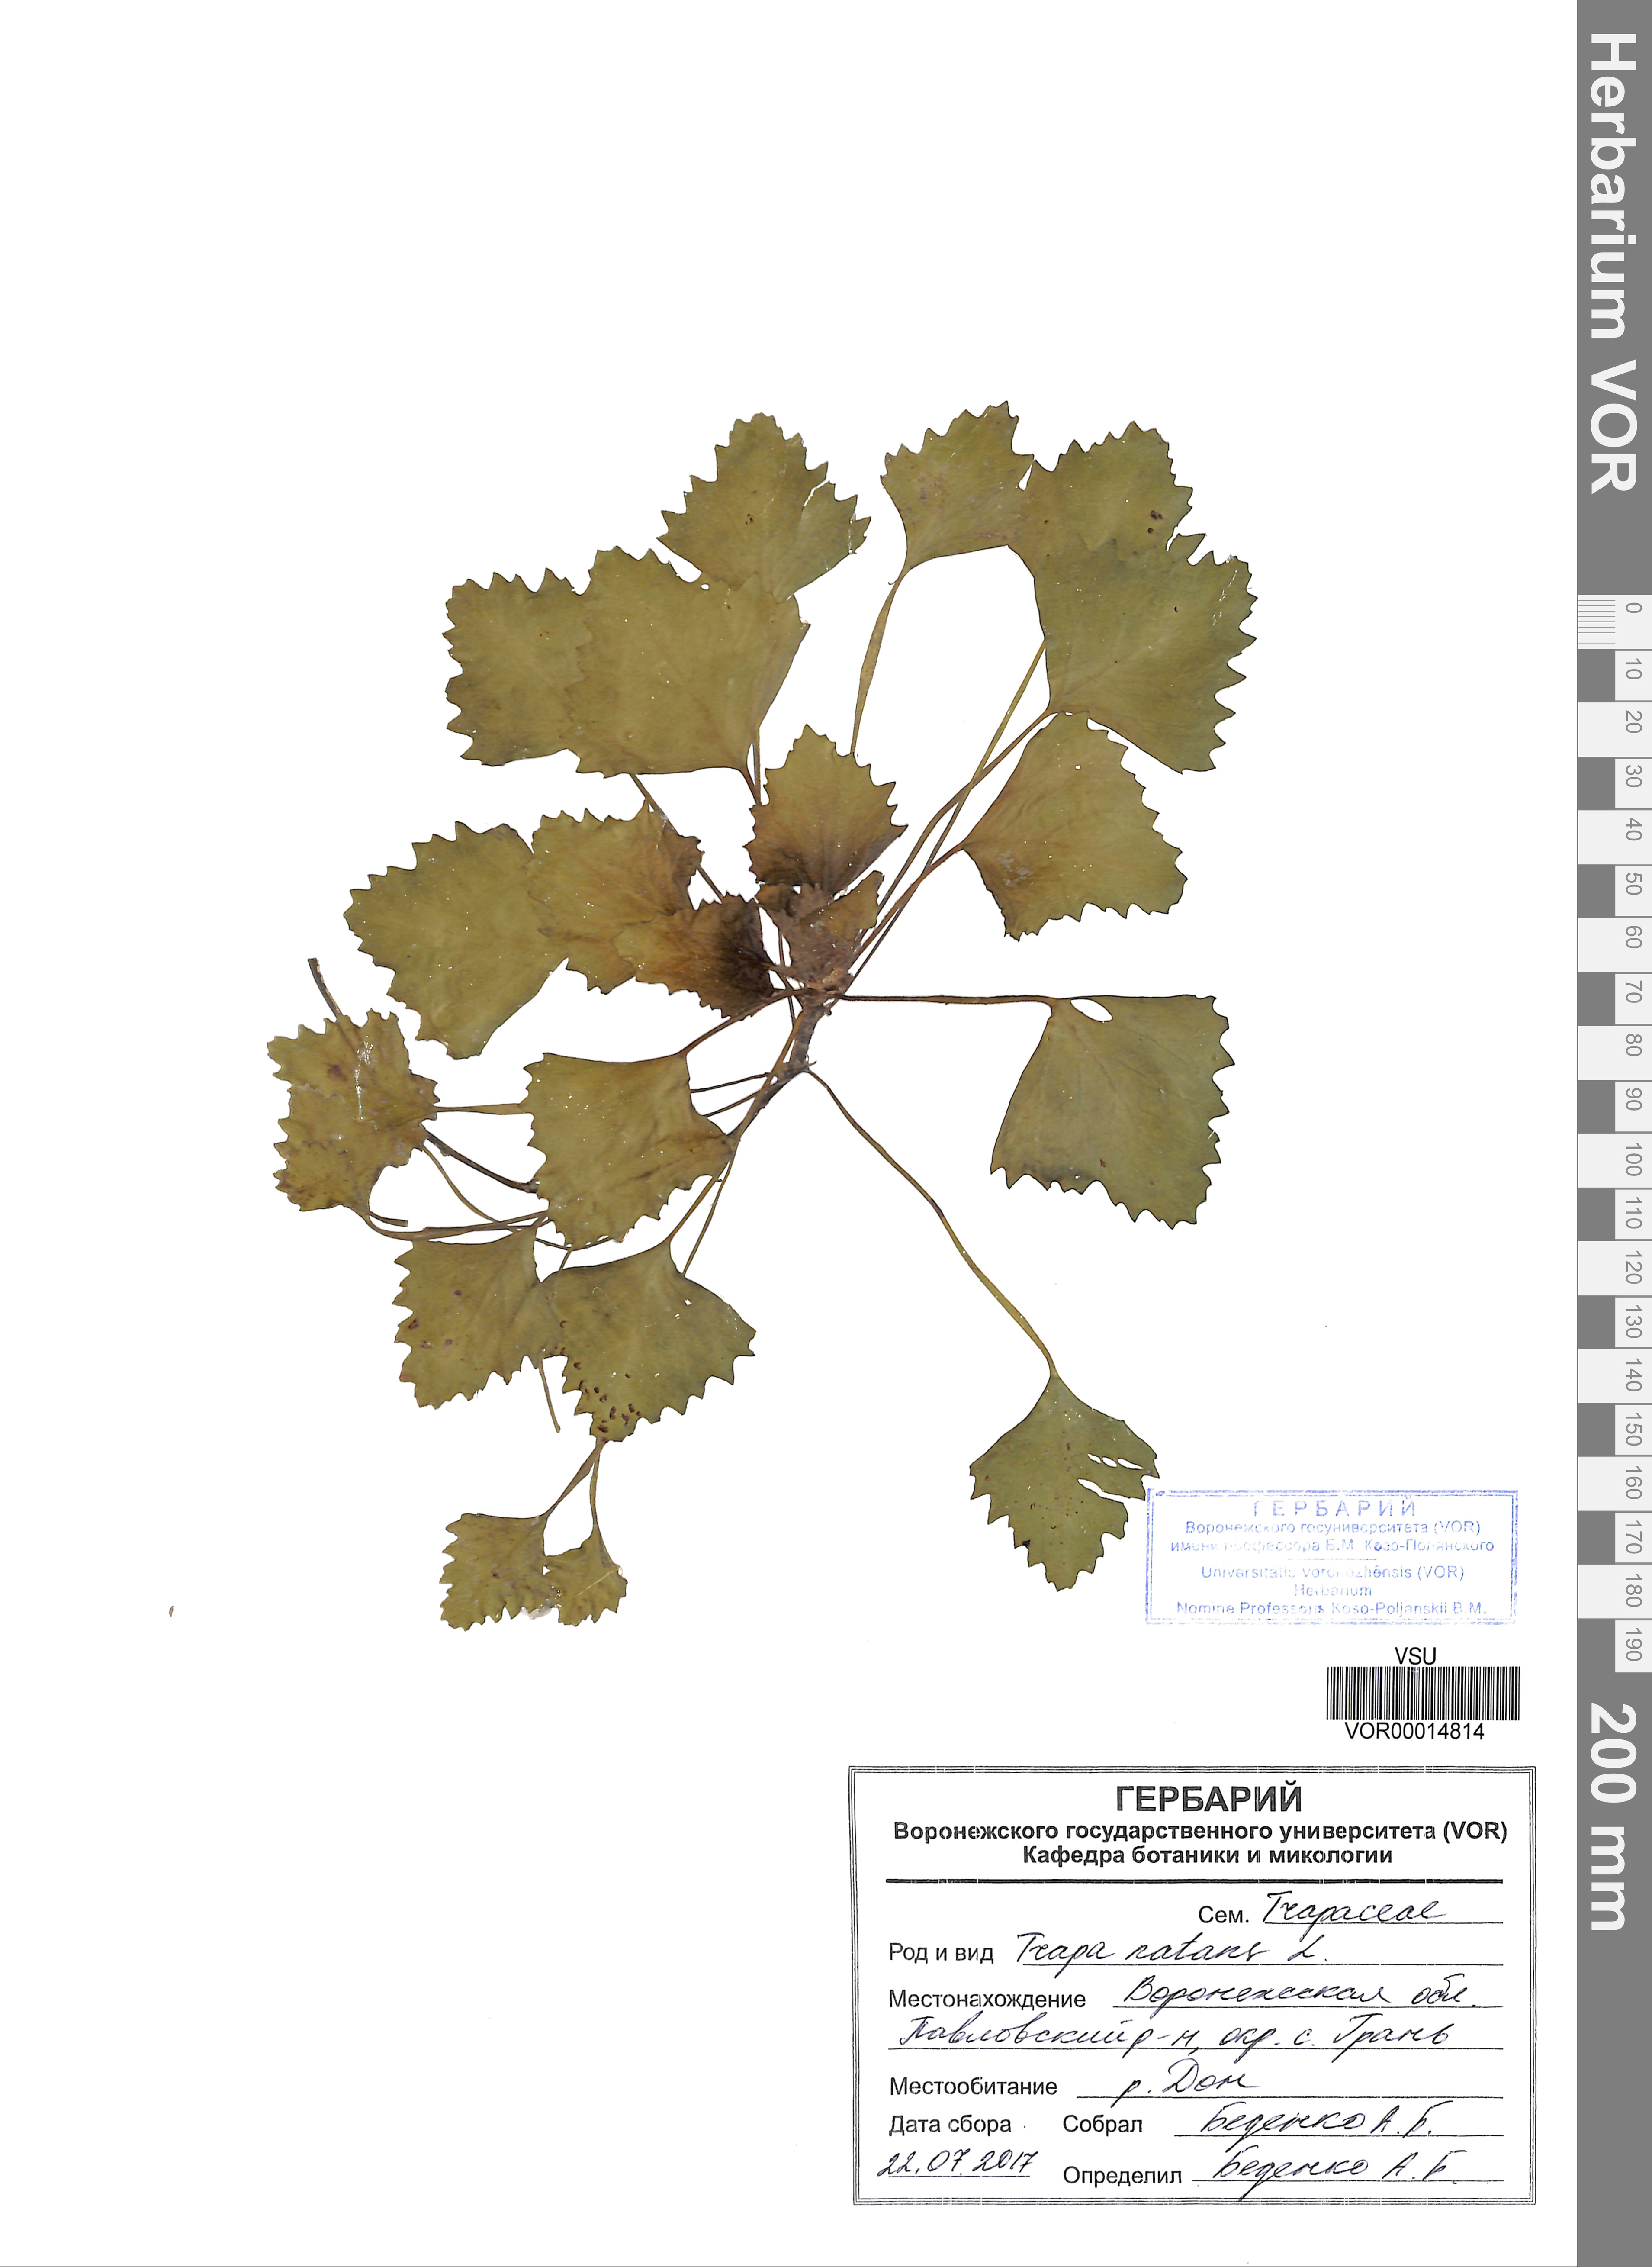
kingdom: Plantae
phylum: Tracheophyta
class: Magnoliopsida
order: Myrtales
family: Lythraceae
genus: Trapa
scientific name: Trapa natans
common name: Water chestnut
